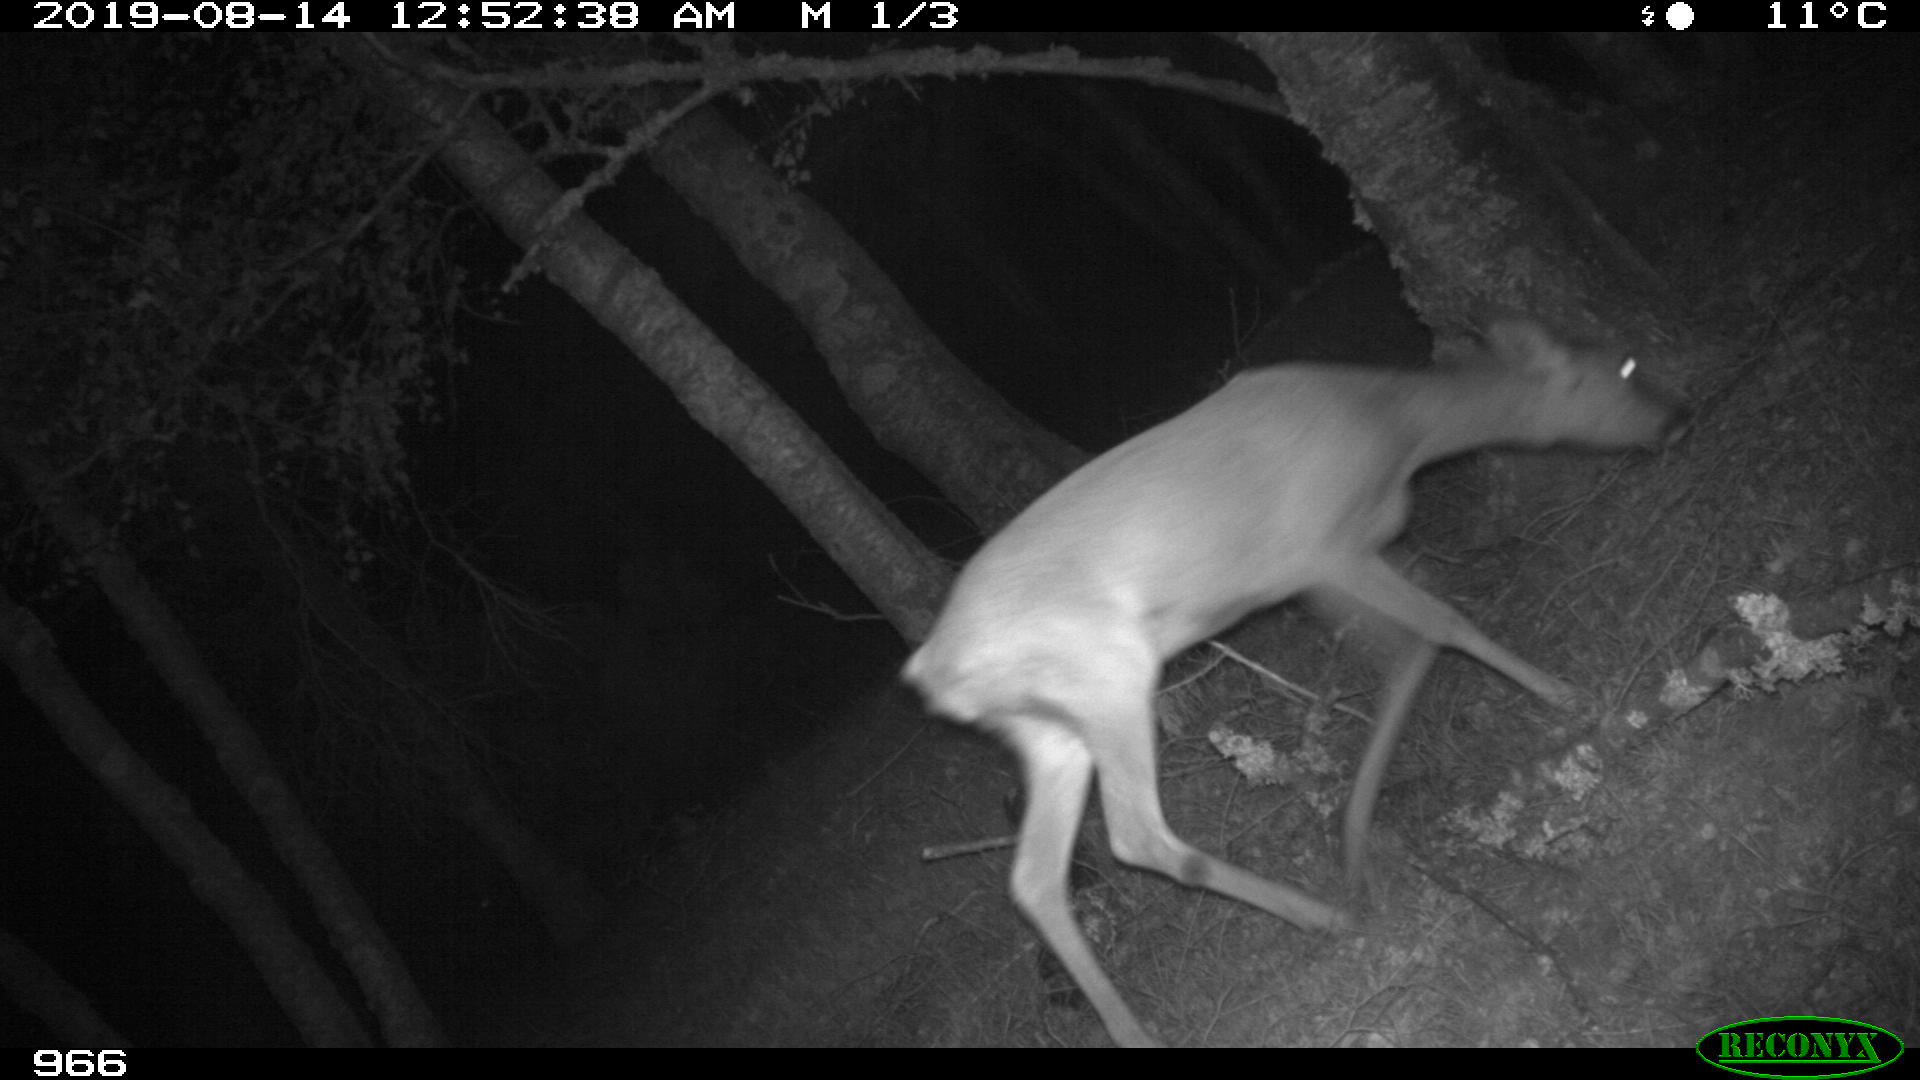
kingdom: Animalia
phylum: Chordata
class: Mammalia
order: Artiodactyla
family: Cervidae
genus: Capreolus
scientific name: Capreolus capreolus
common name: Western roe deer
